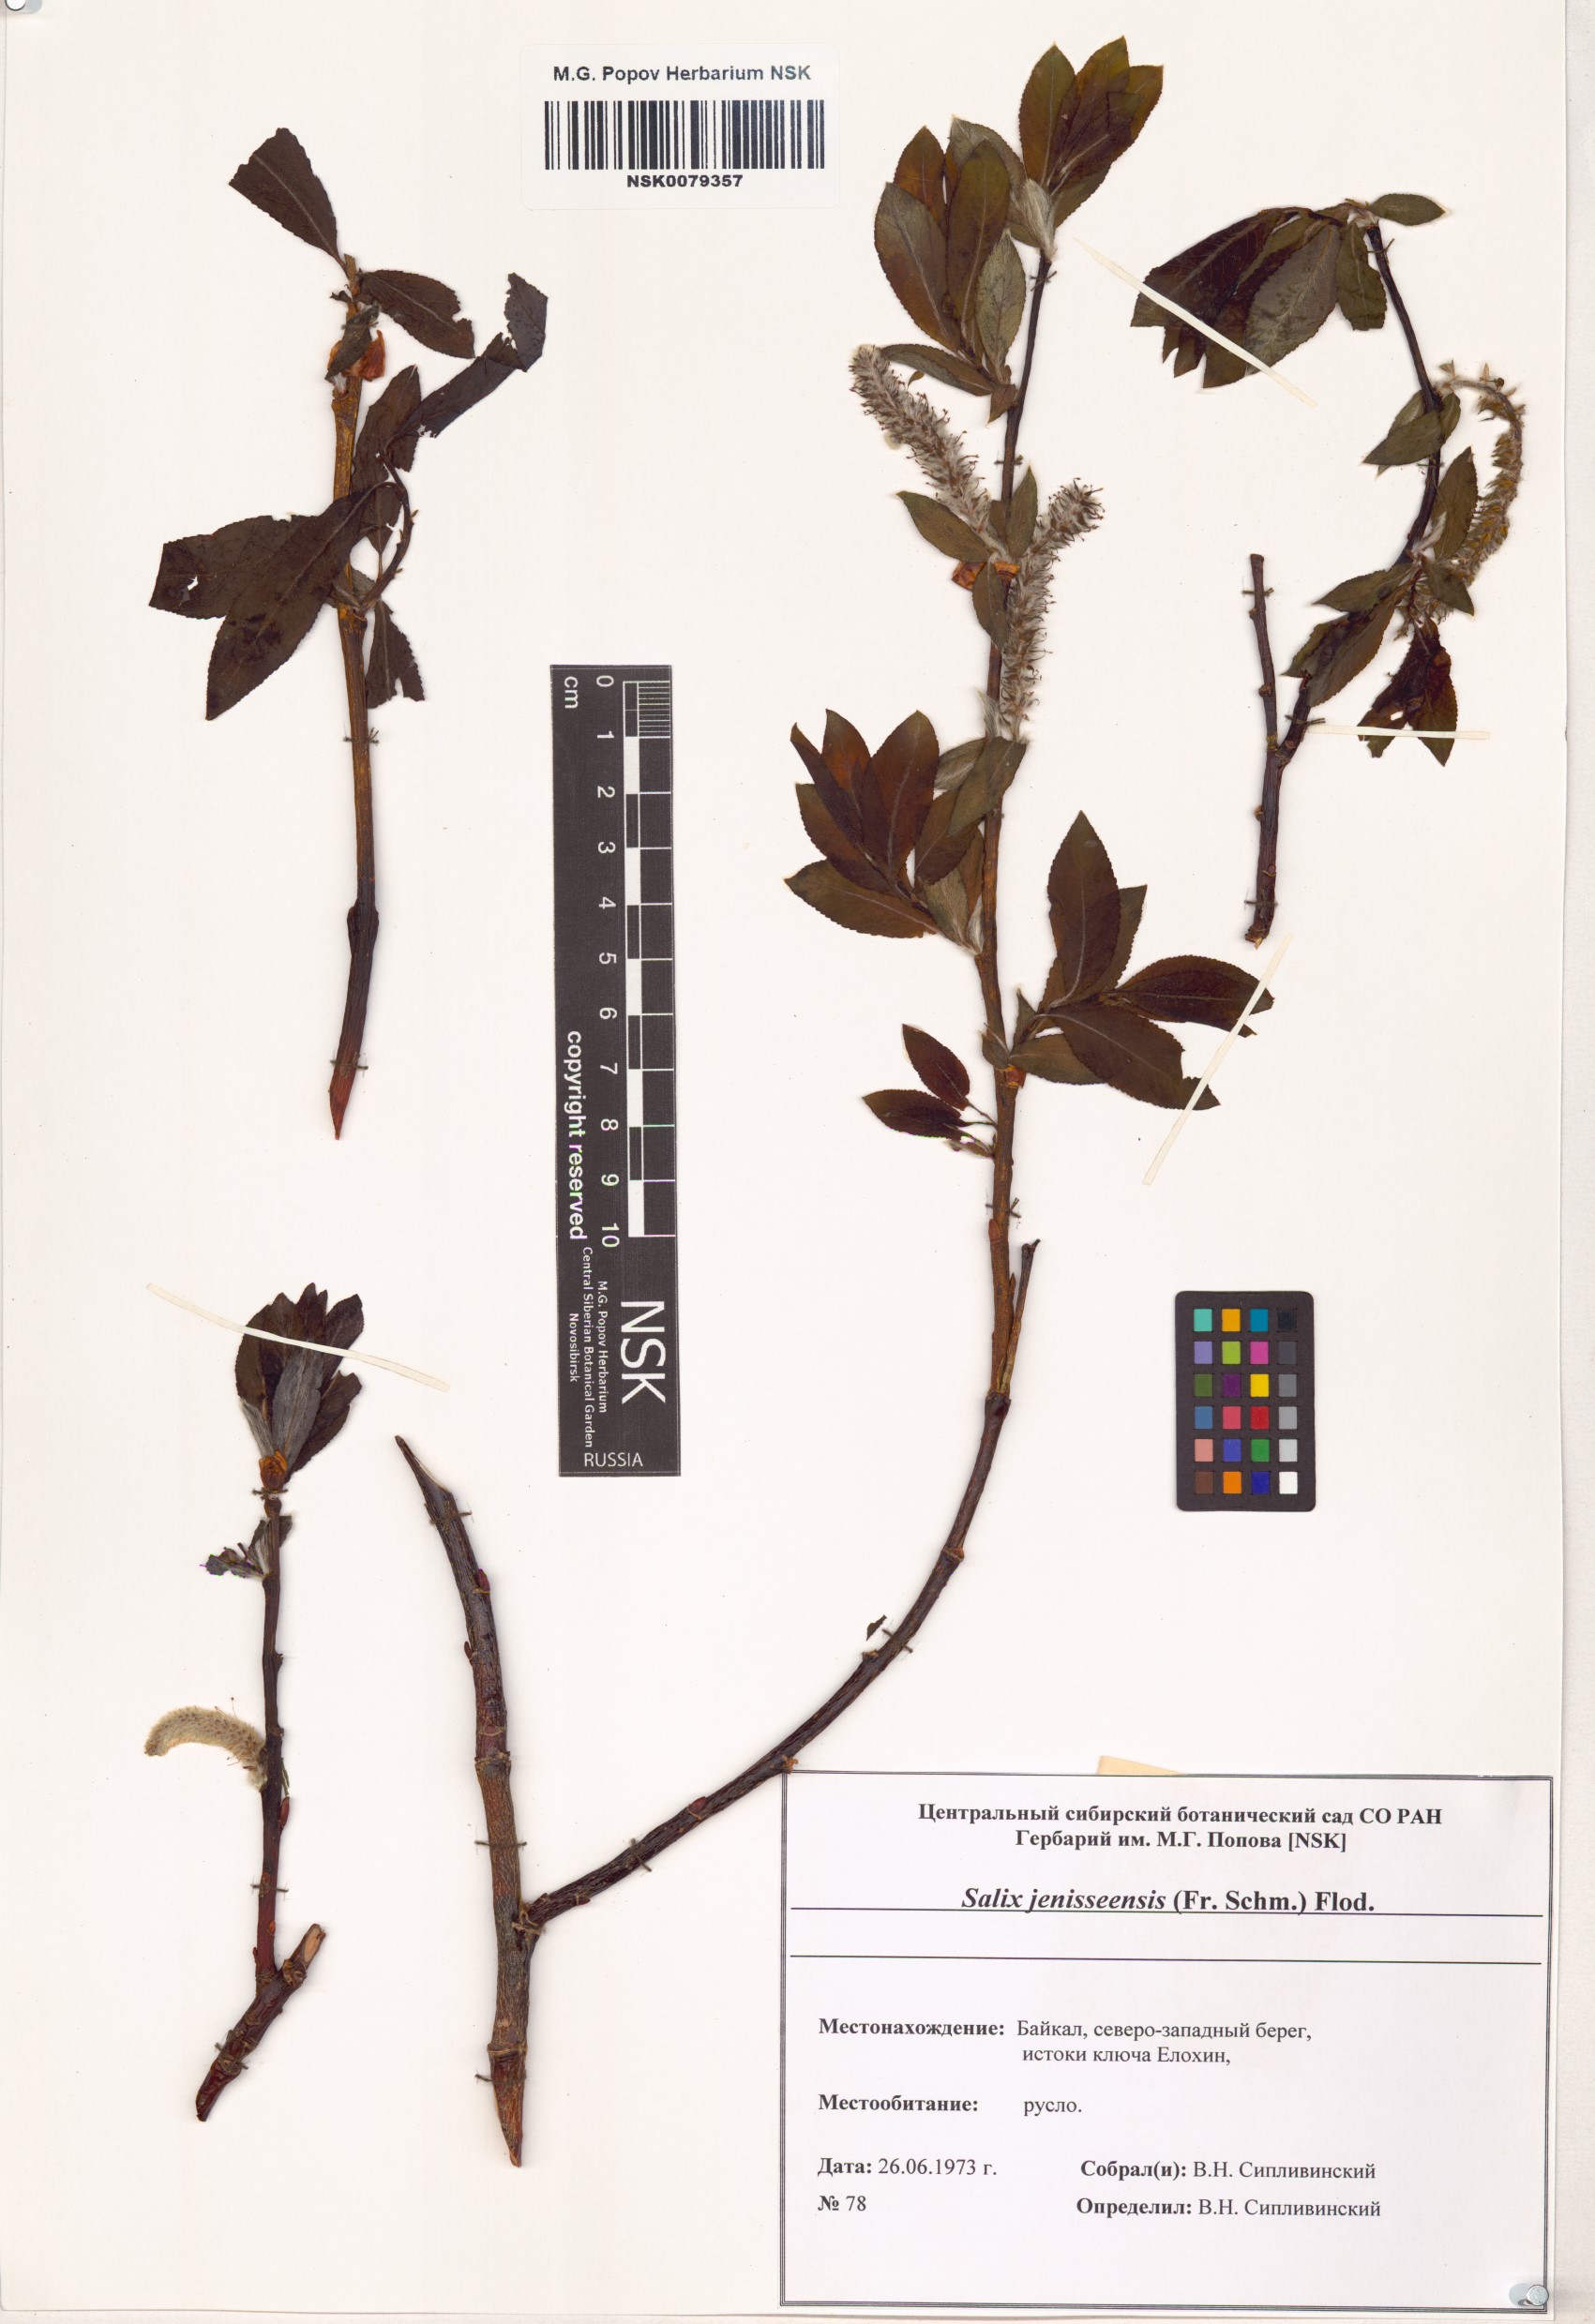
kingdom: Plantae
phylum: Tracheophyta
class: Magnoliopsida
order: Malpighiales
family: Salicaceae
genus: Salix
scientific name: Salix jenisseensis
